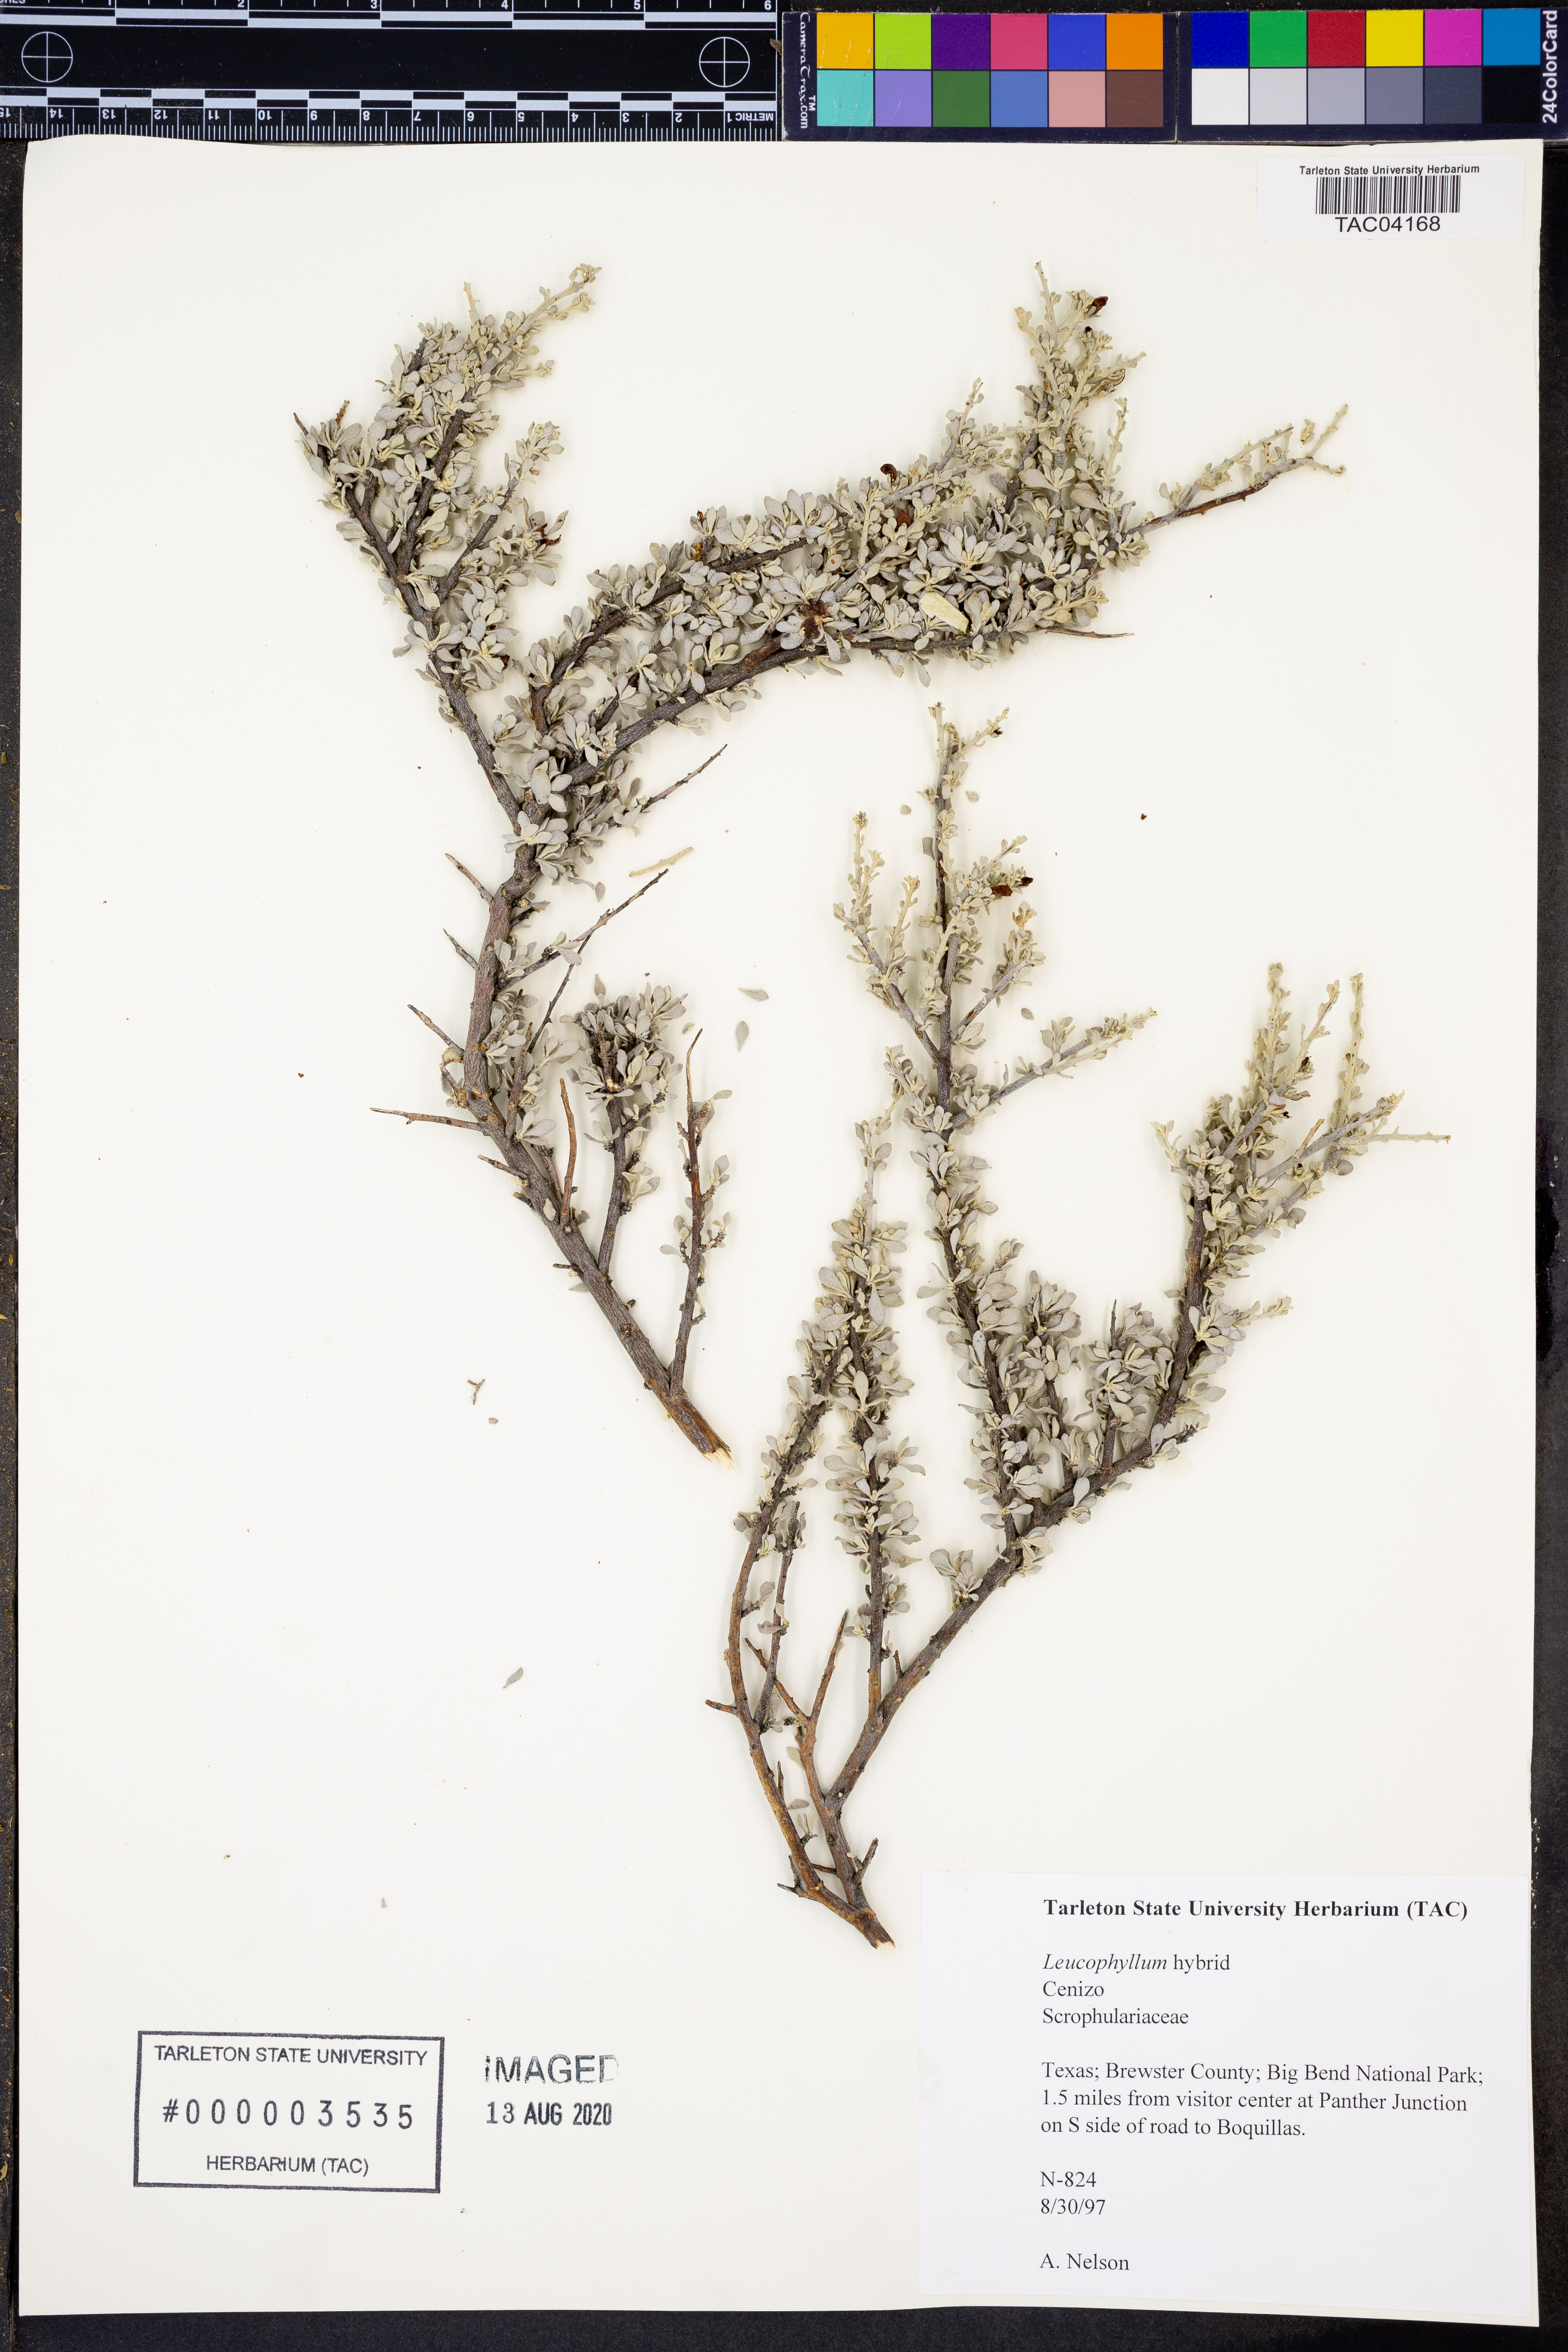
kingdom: Plantae
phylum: Tracheophyta
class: Magnoliopsida
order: Lamiales
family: Scrophulariaceae
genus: Leucophyllum
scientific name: Leucophyllum
